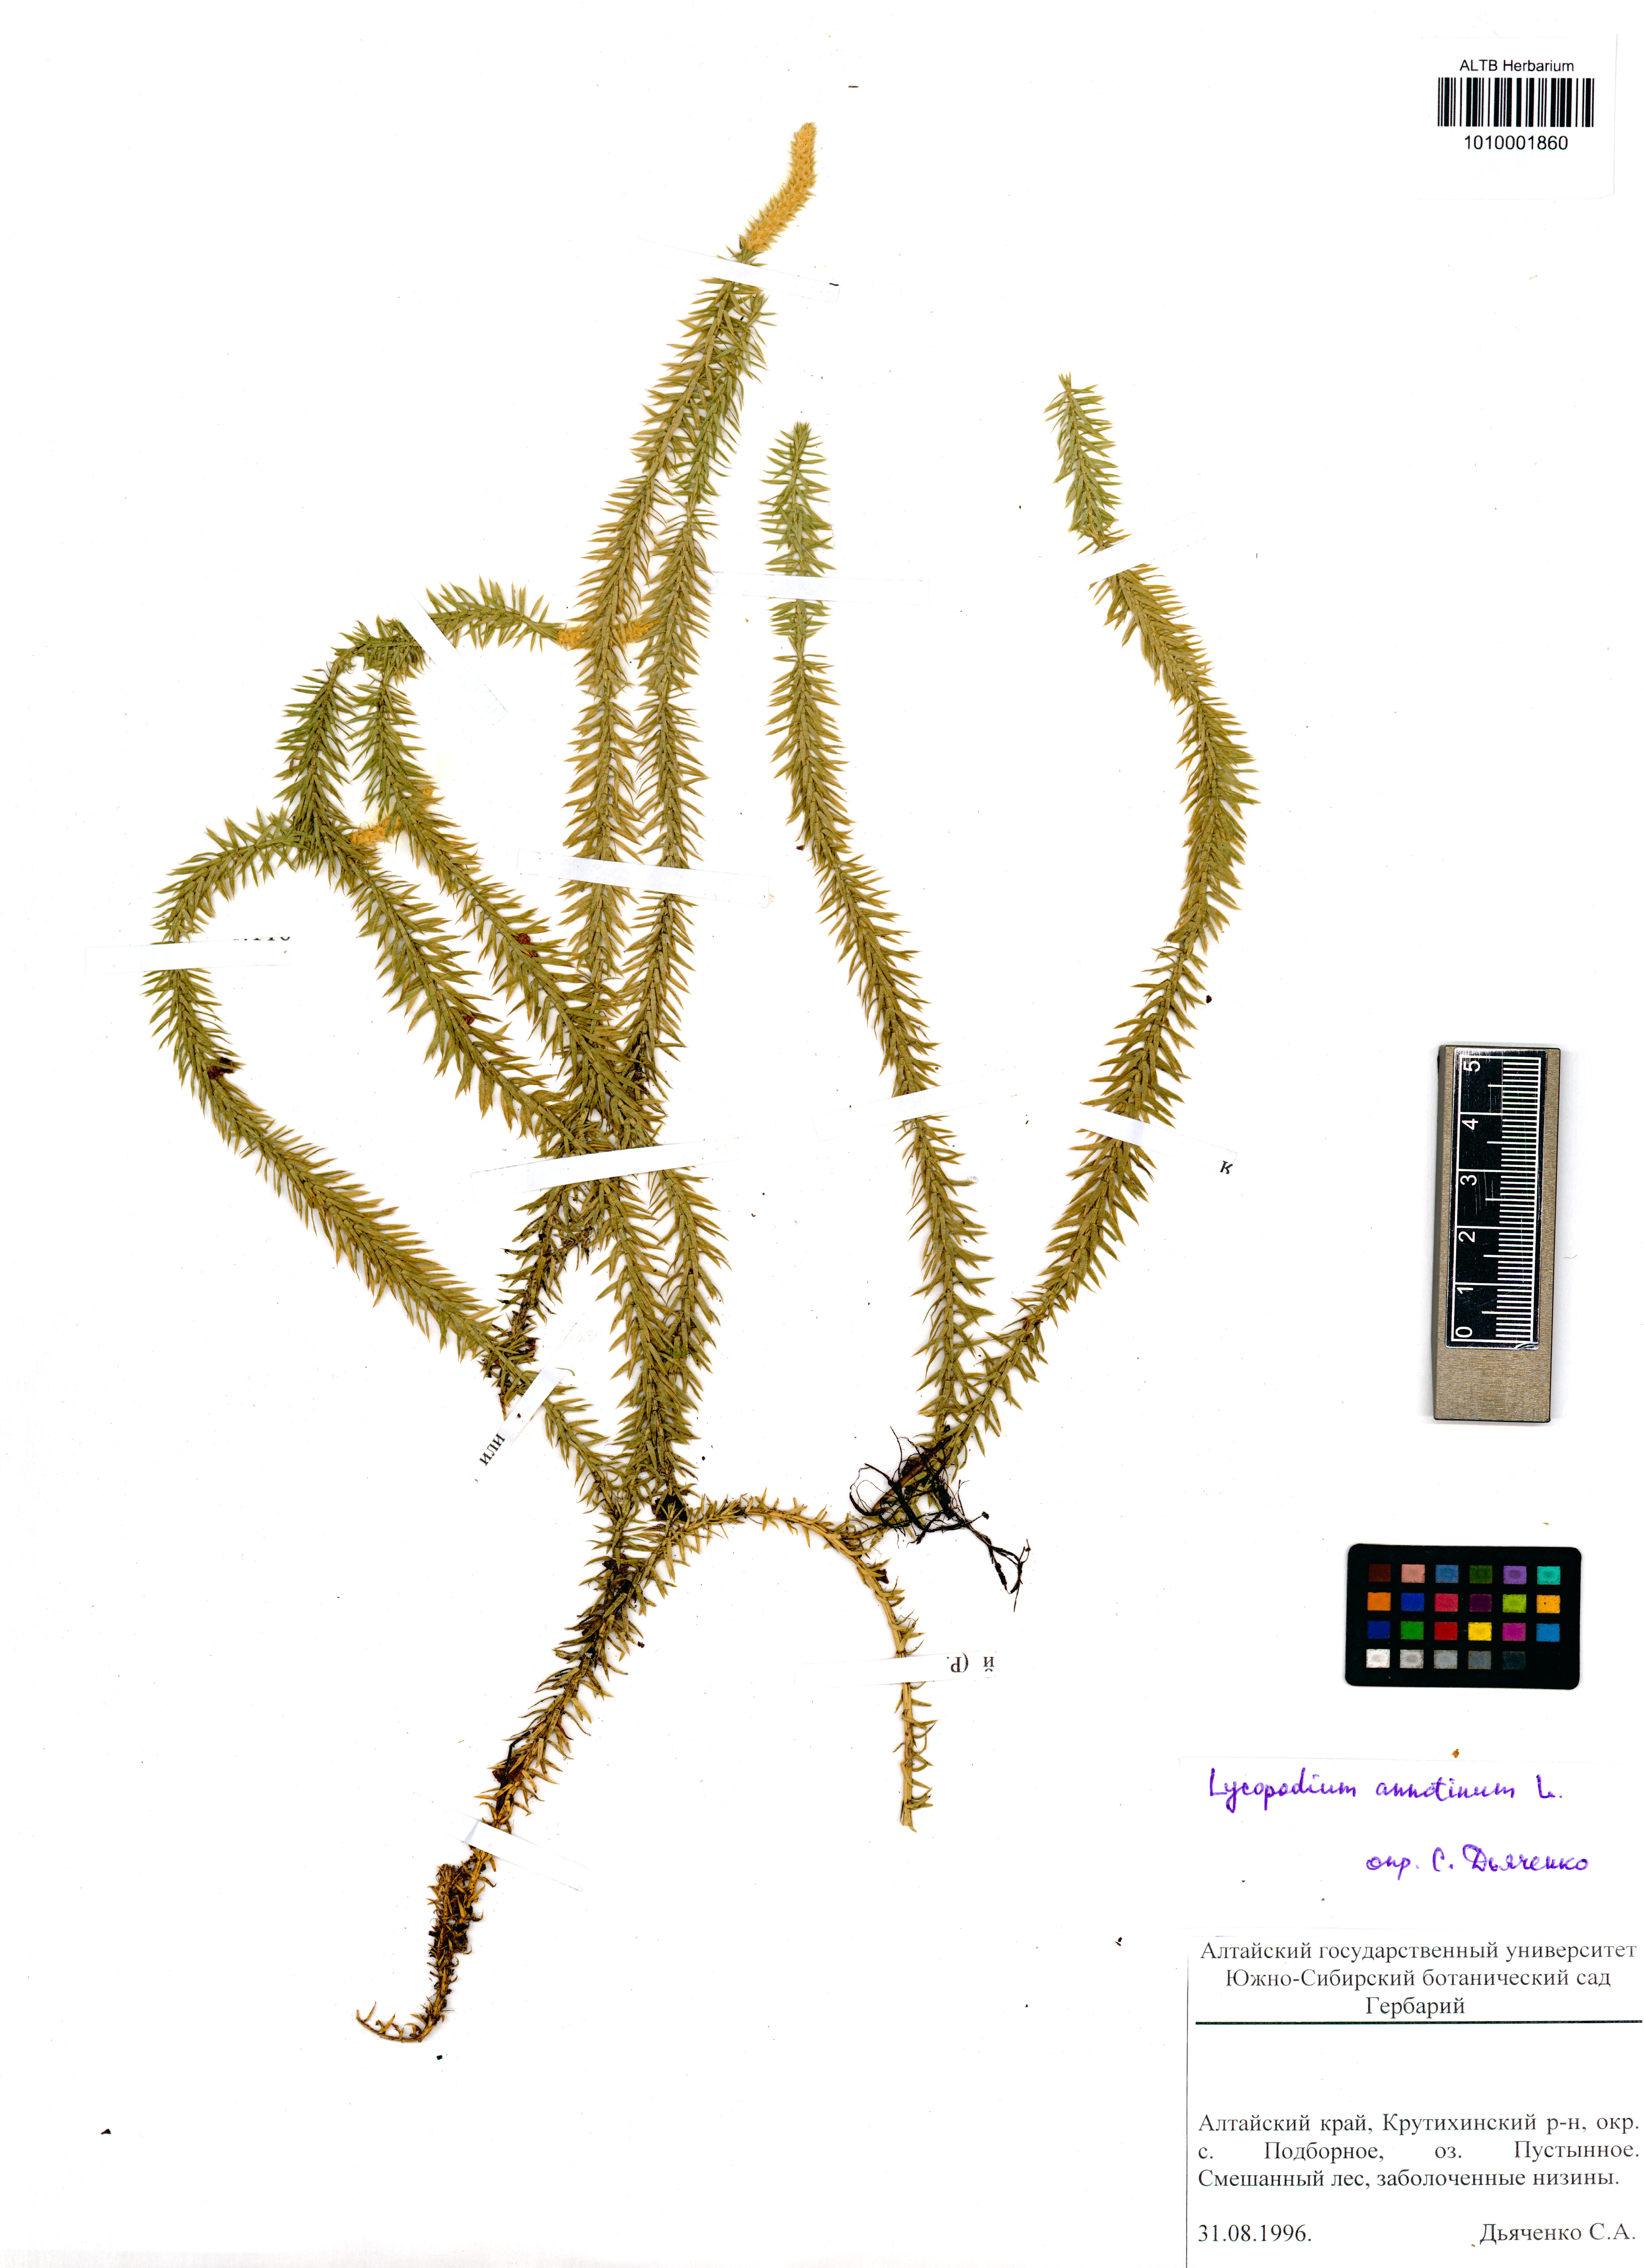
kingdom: Plantae
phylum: Tracheophyta
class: Lycopodiopsida
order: Lycopodiales
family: Lycopodiaceae
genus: Spinulum
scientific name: Spinulum annotinum
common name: Interrupted club-moss
